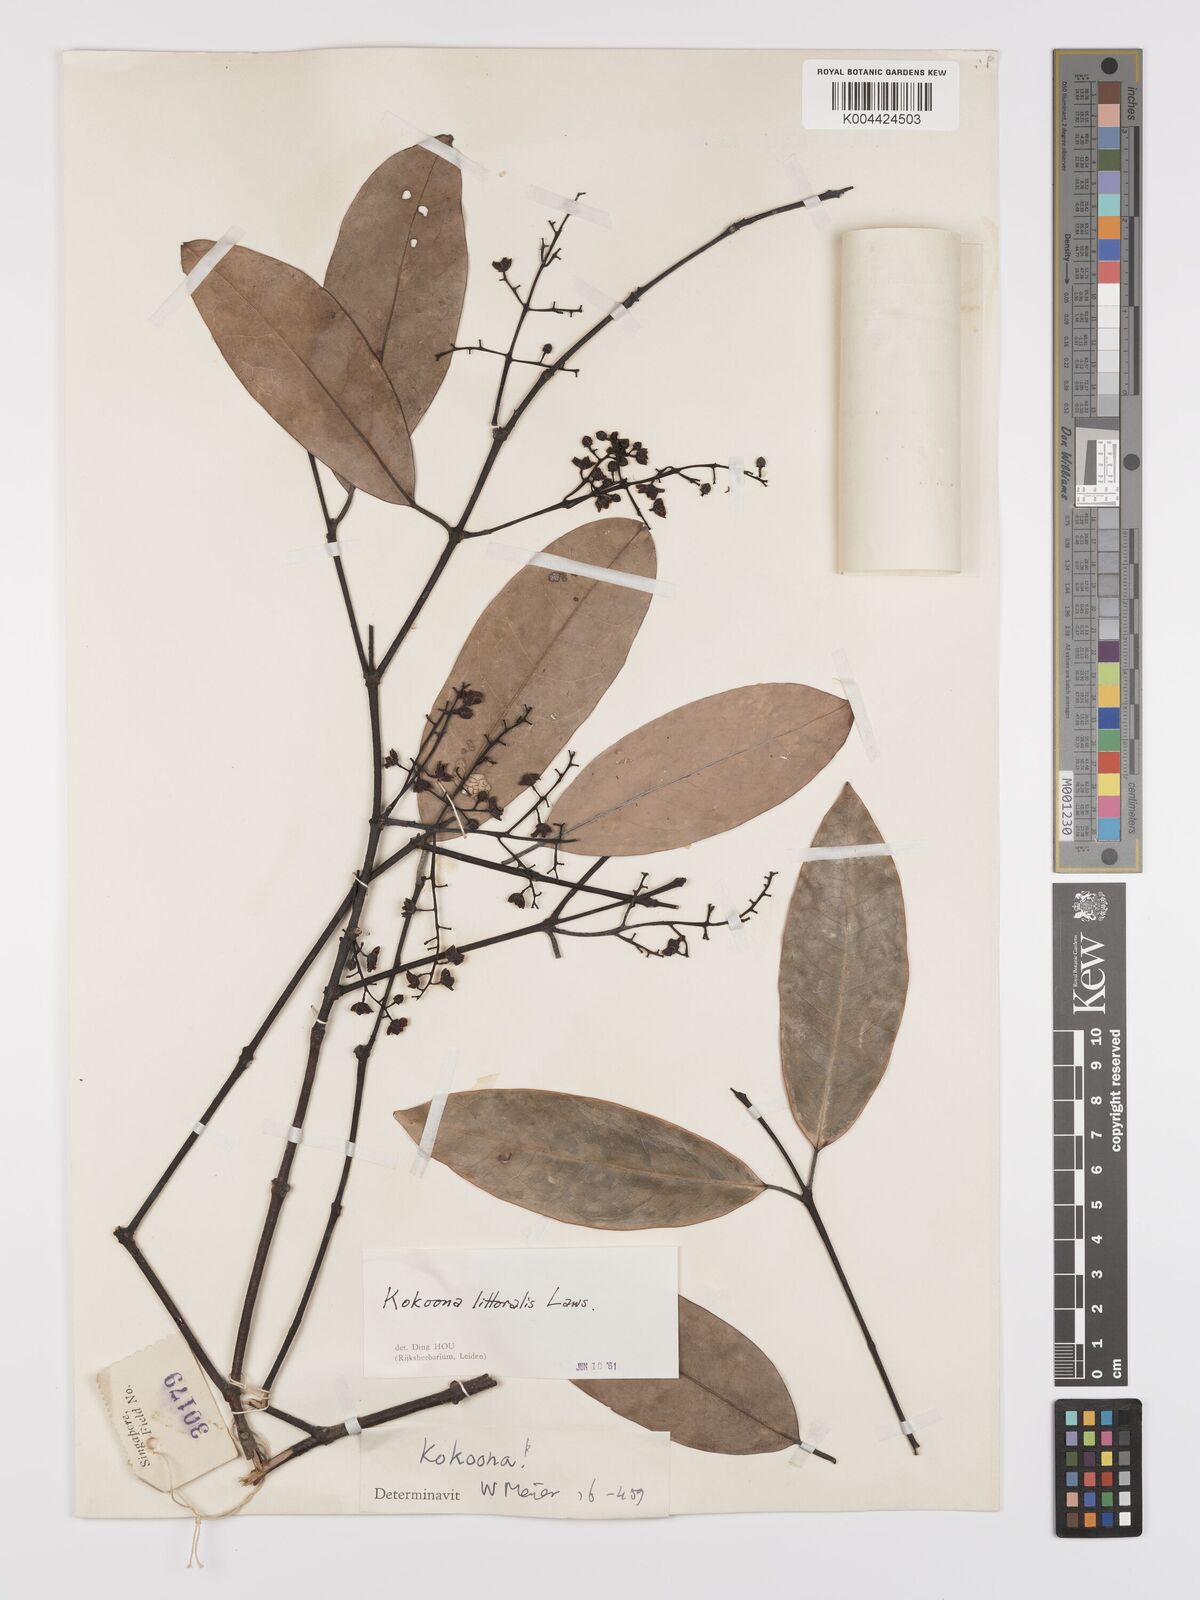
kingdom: Plantae
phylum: Tracheophyta
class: Magnoliopsida
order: Celastrales
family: Celastraceae
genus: Kokoona
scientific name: Kokoona littoralis
